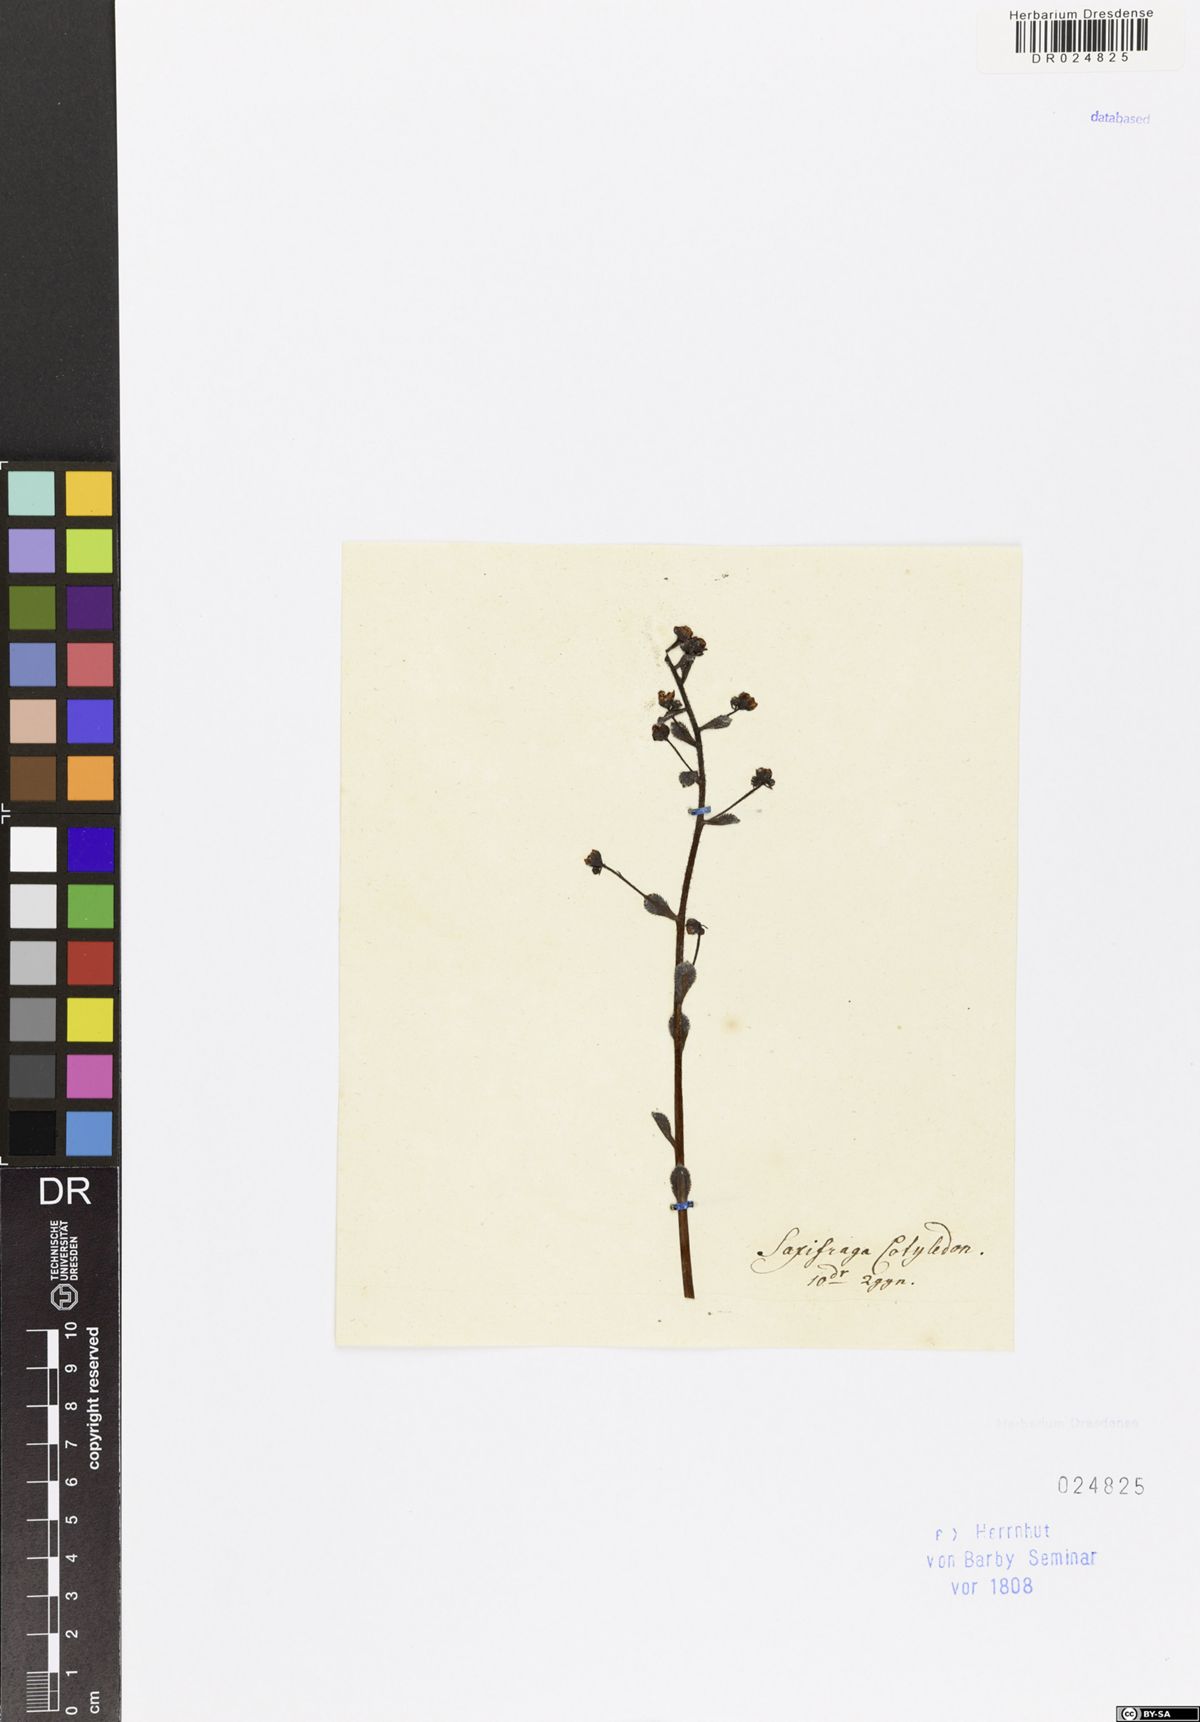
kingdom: Plantae
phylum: Tracheophyta
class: Magnoliopsida
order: Saxifragales
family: Saxifragaceae
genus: Saxifraga
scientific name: Saxifraga cotyledon
